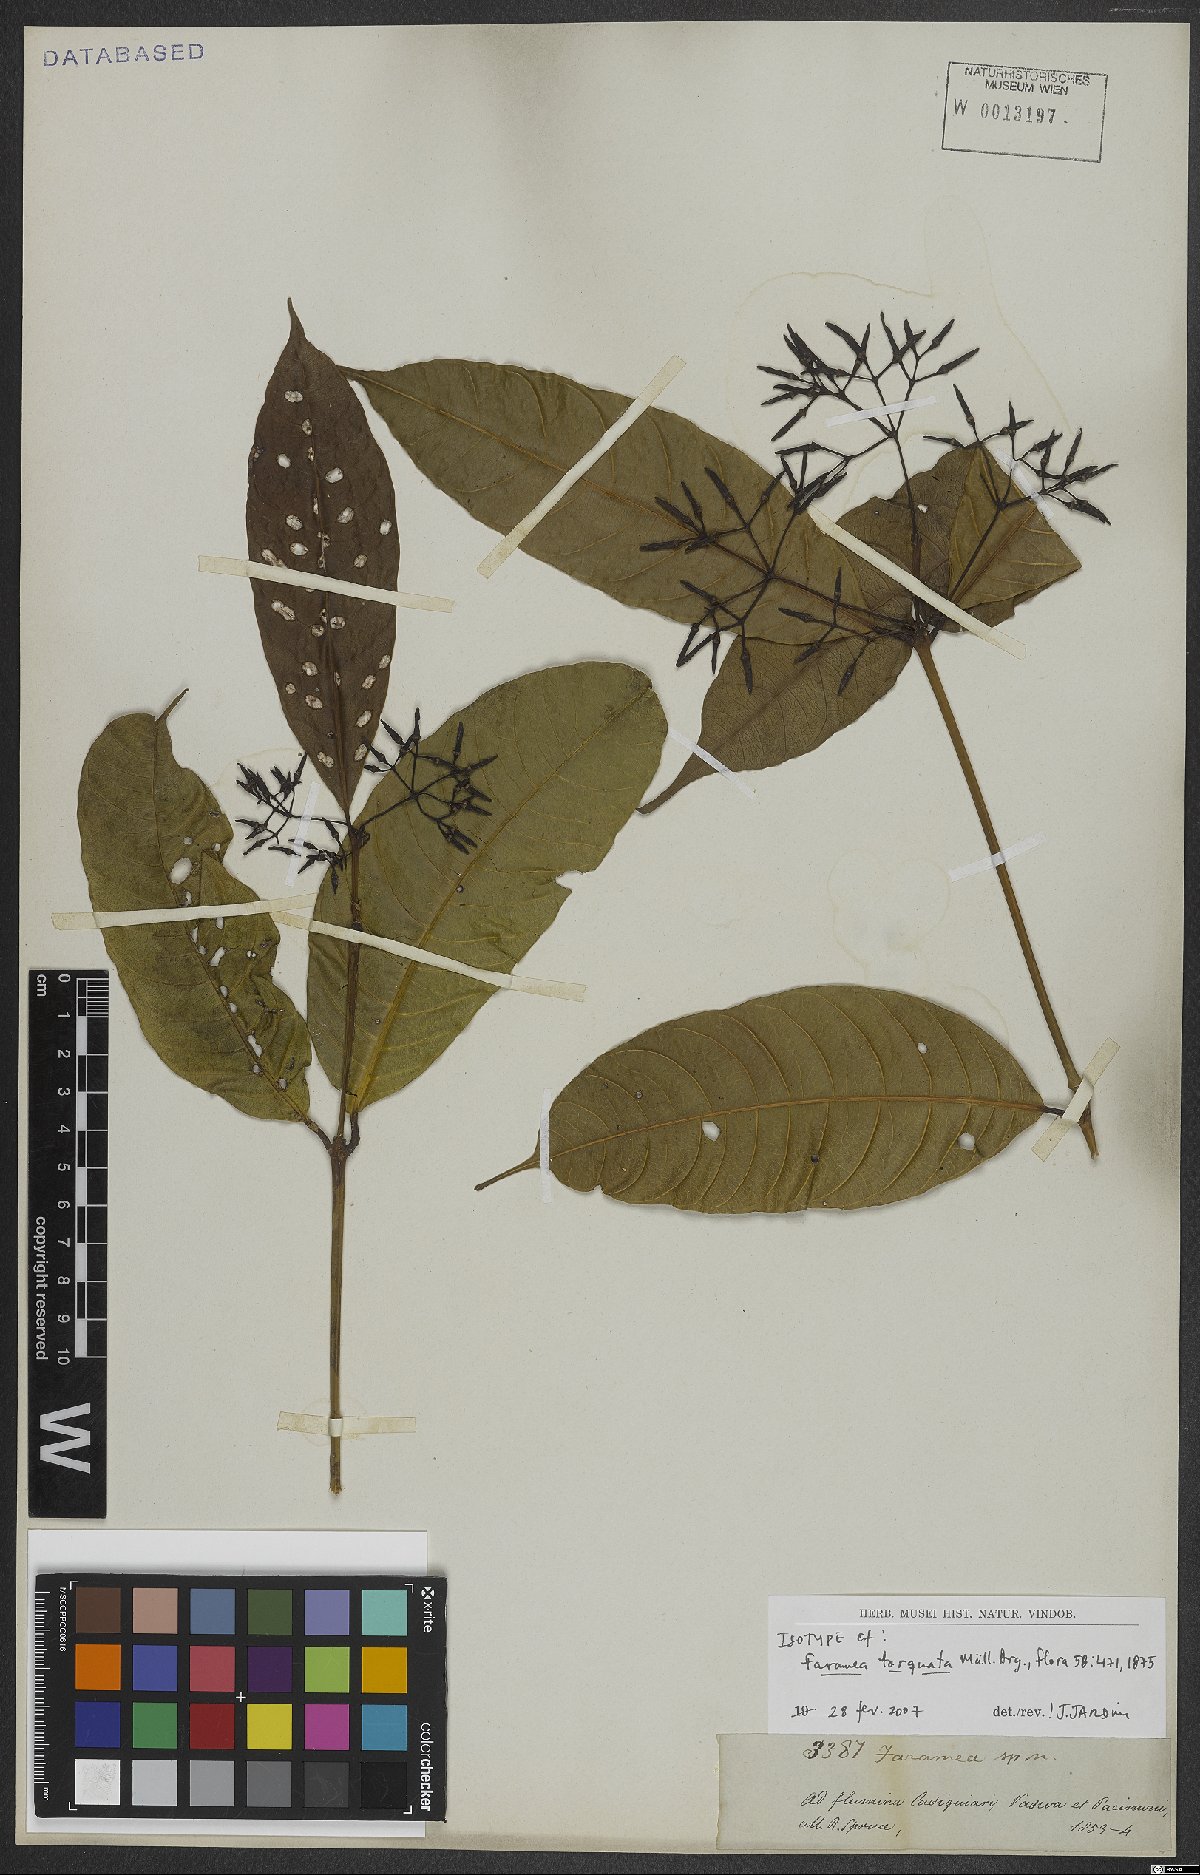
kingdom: Plantae
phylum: Tracheophyta
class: Magnoliopsida
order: Gentianales
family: Rubiaceae
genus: Faramea
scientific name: Faramea torquata
